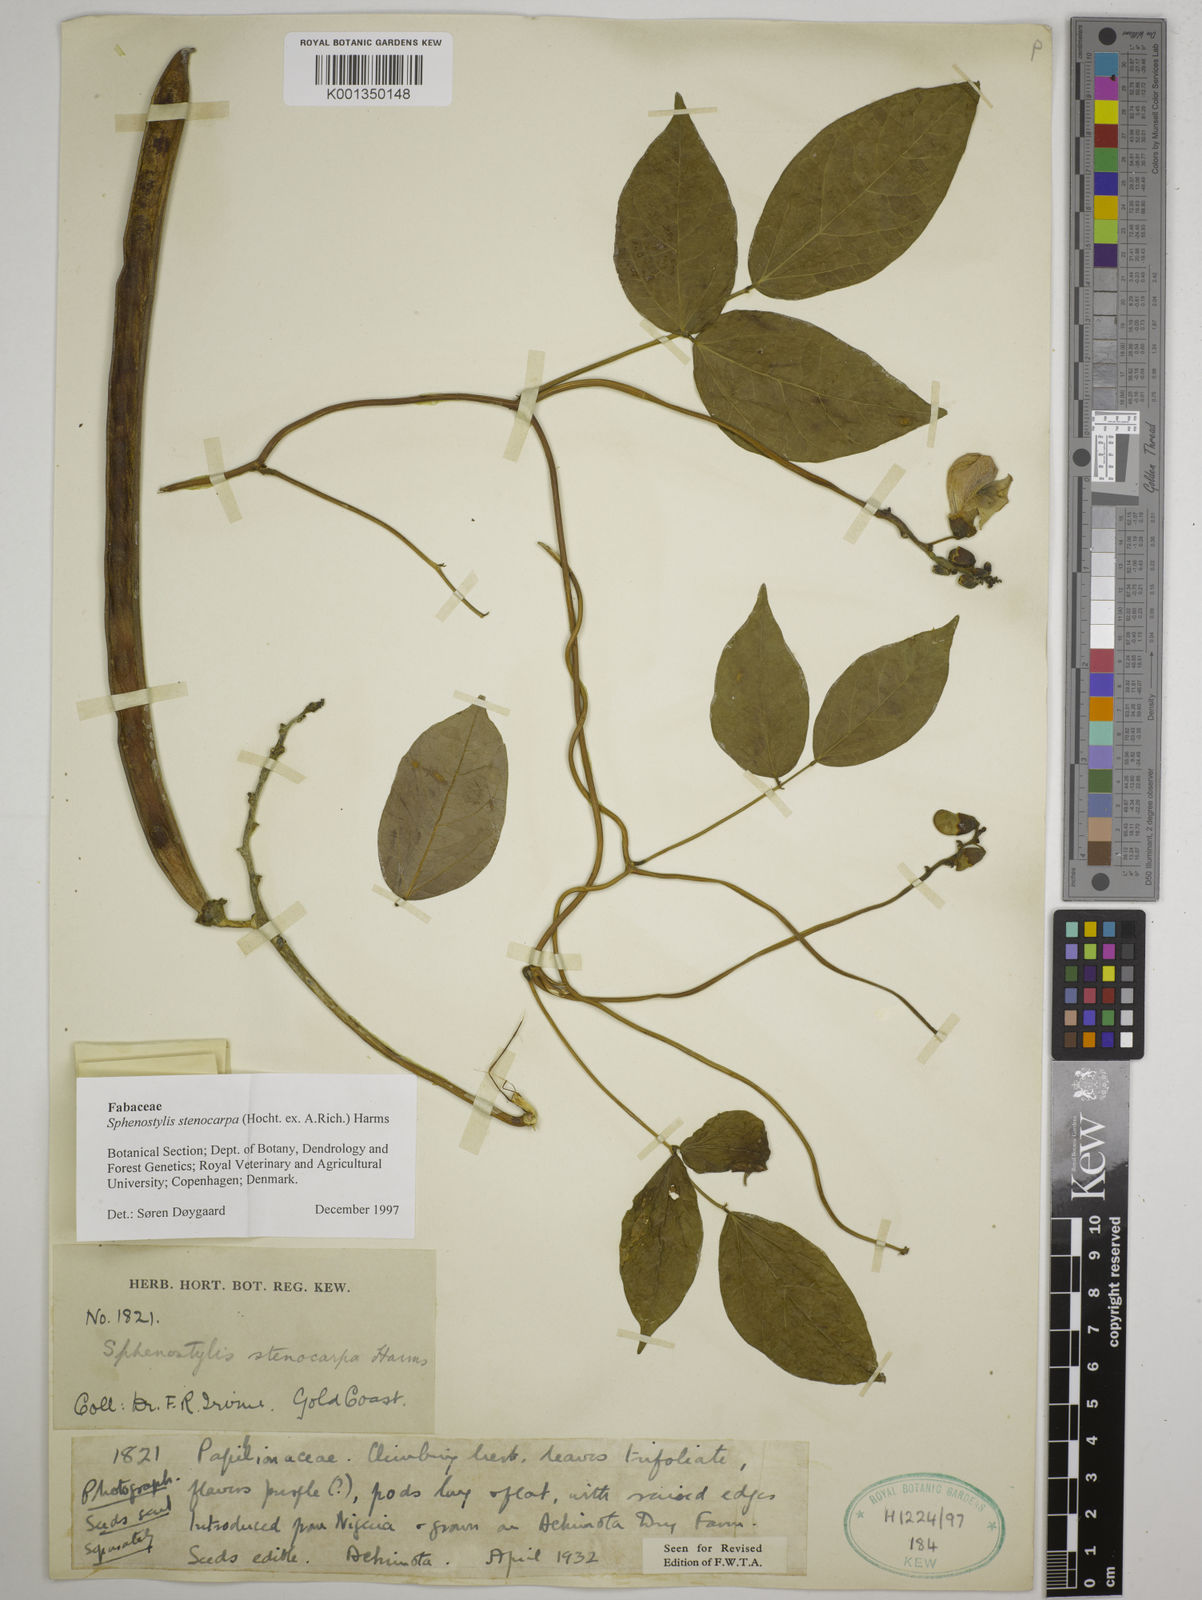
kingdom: Plantae
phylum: Tracheophyta
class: Magnoliopsida
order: Fabales
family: Fabaceae
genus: Sphenostylis
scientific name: Sphenostylis stenocarpa
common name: Yam-pea
